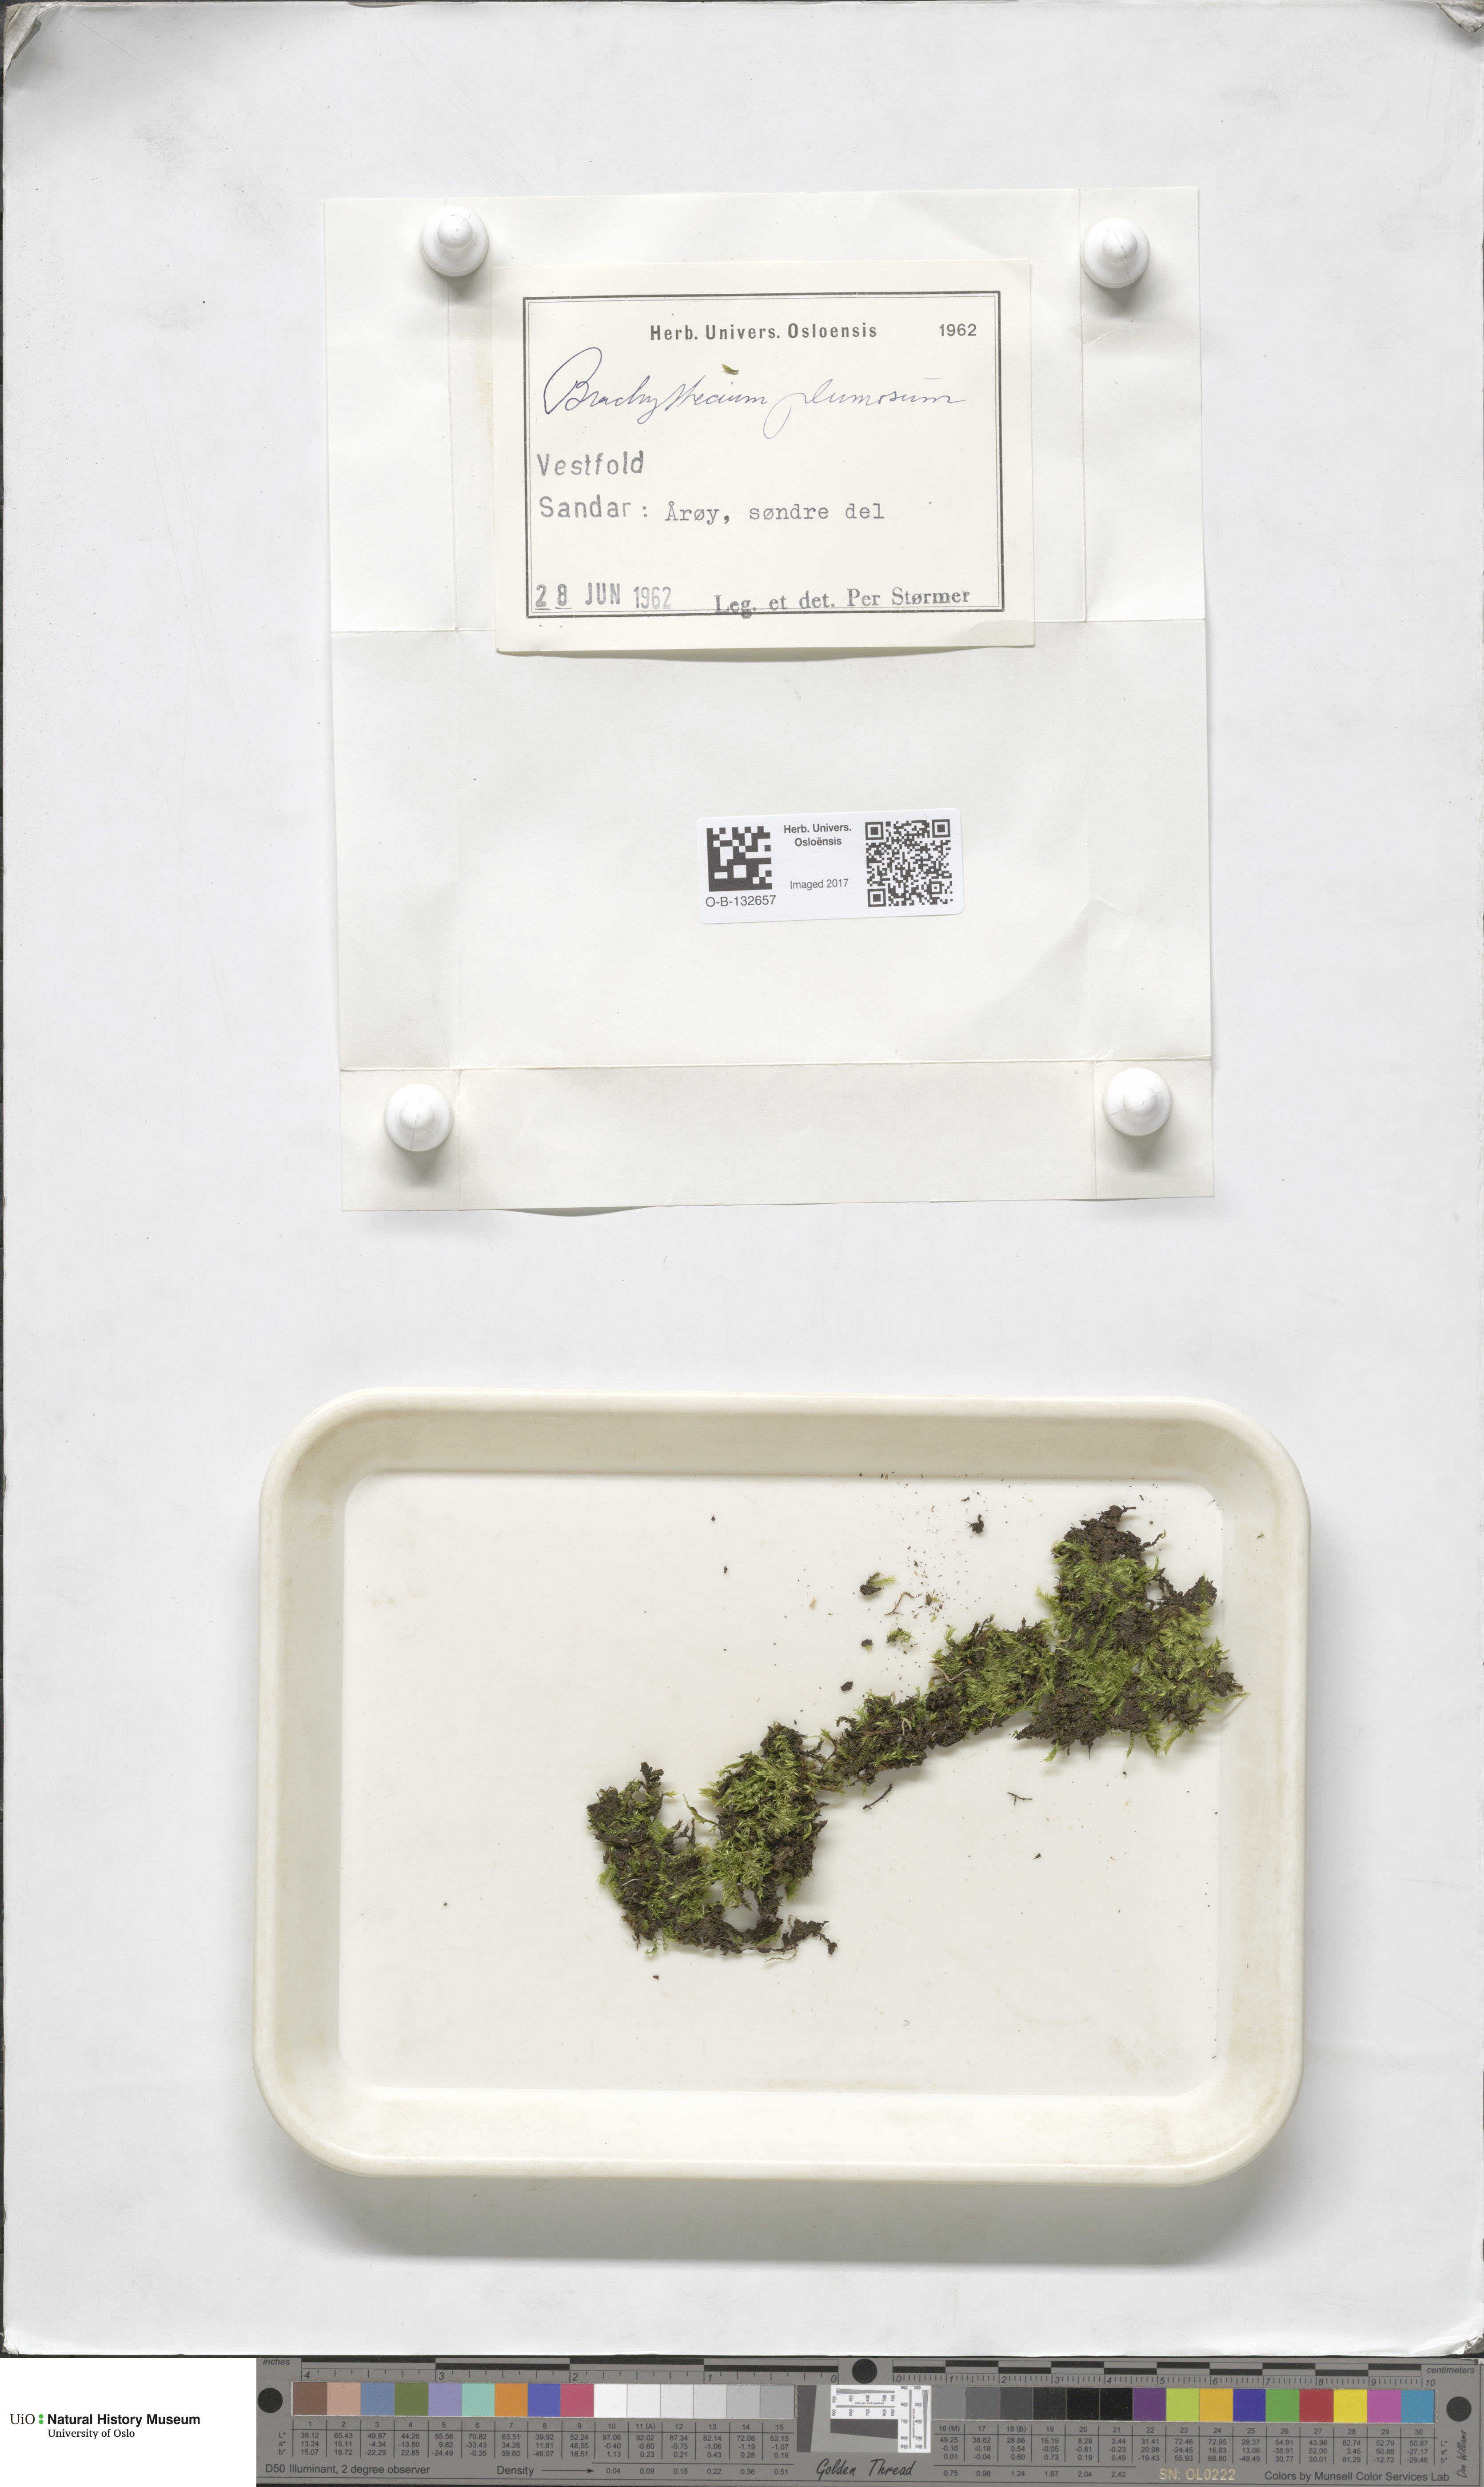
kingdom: Plantae
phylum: Bryophyta
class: Bryopsida
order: Hypnales
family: Brachytheciaceae
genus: Sciuro-hypnum
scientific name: Sciuro-hypnum plumosum
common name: Rusty feather-moss
